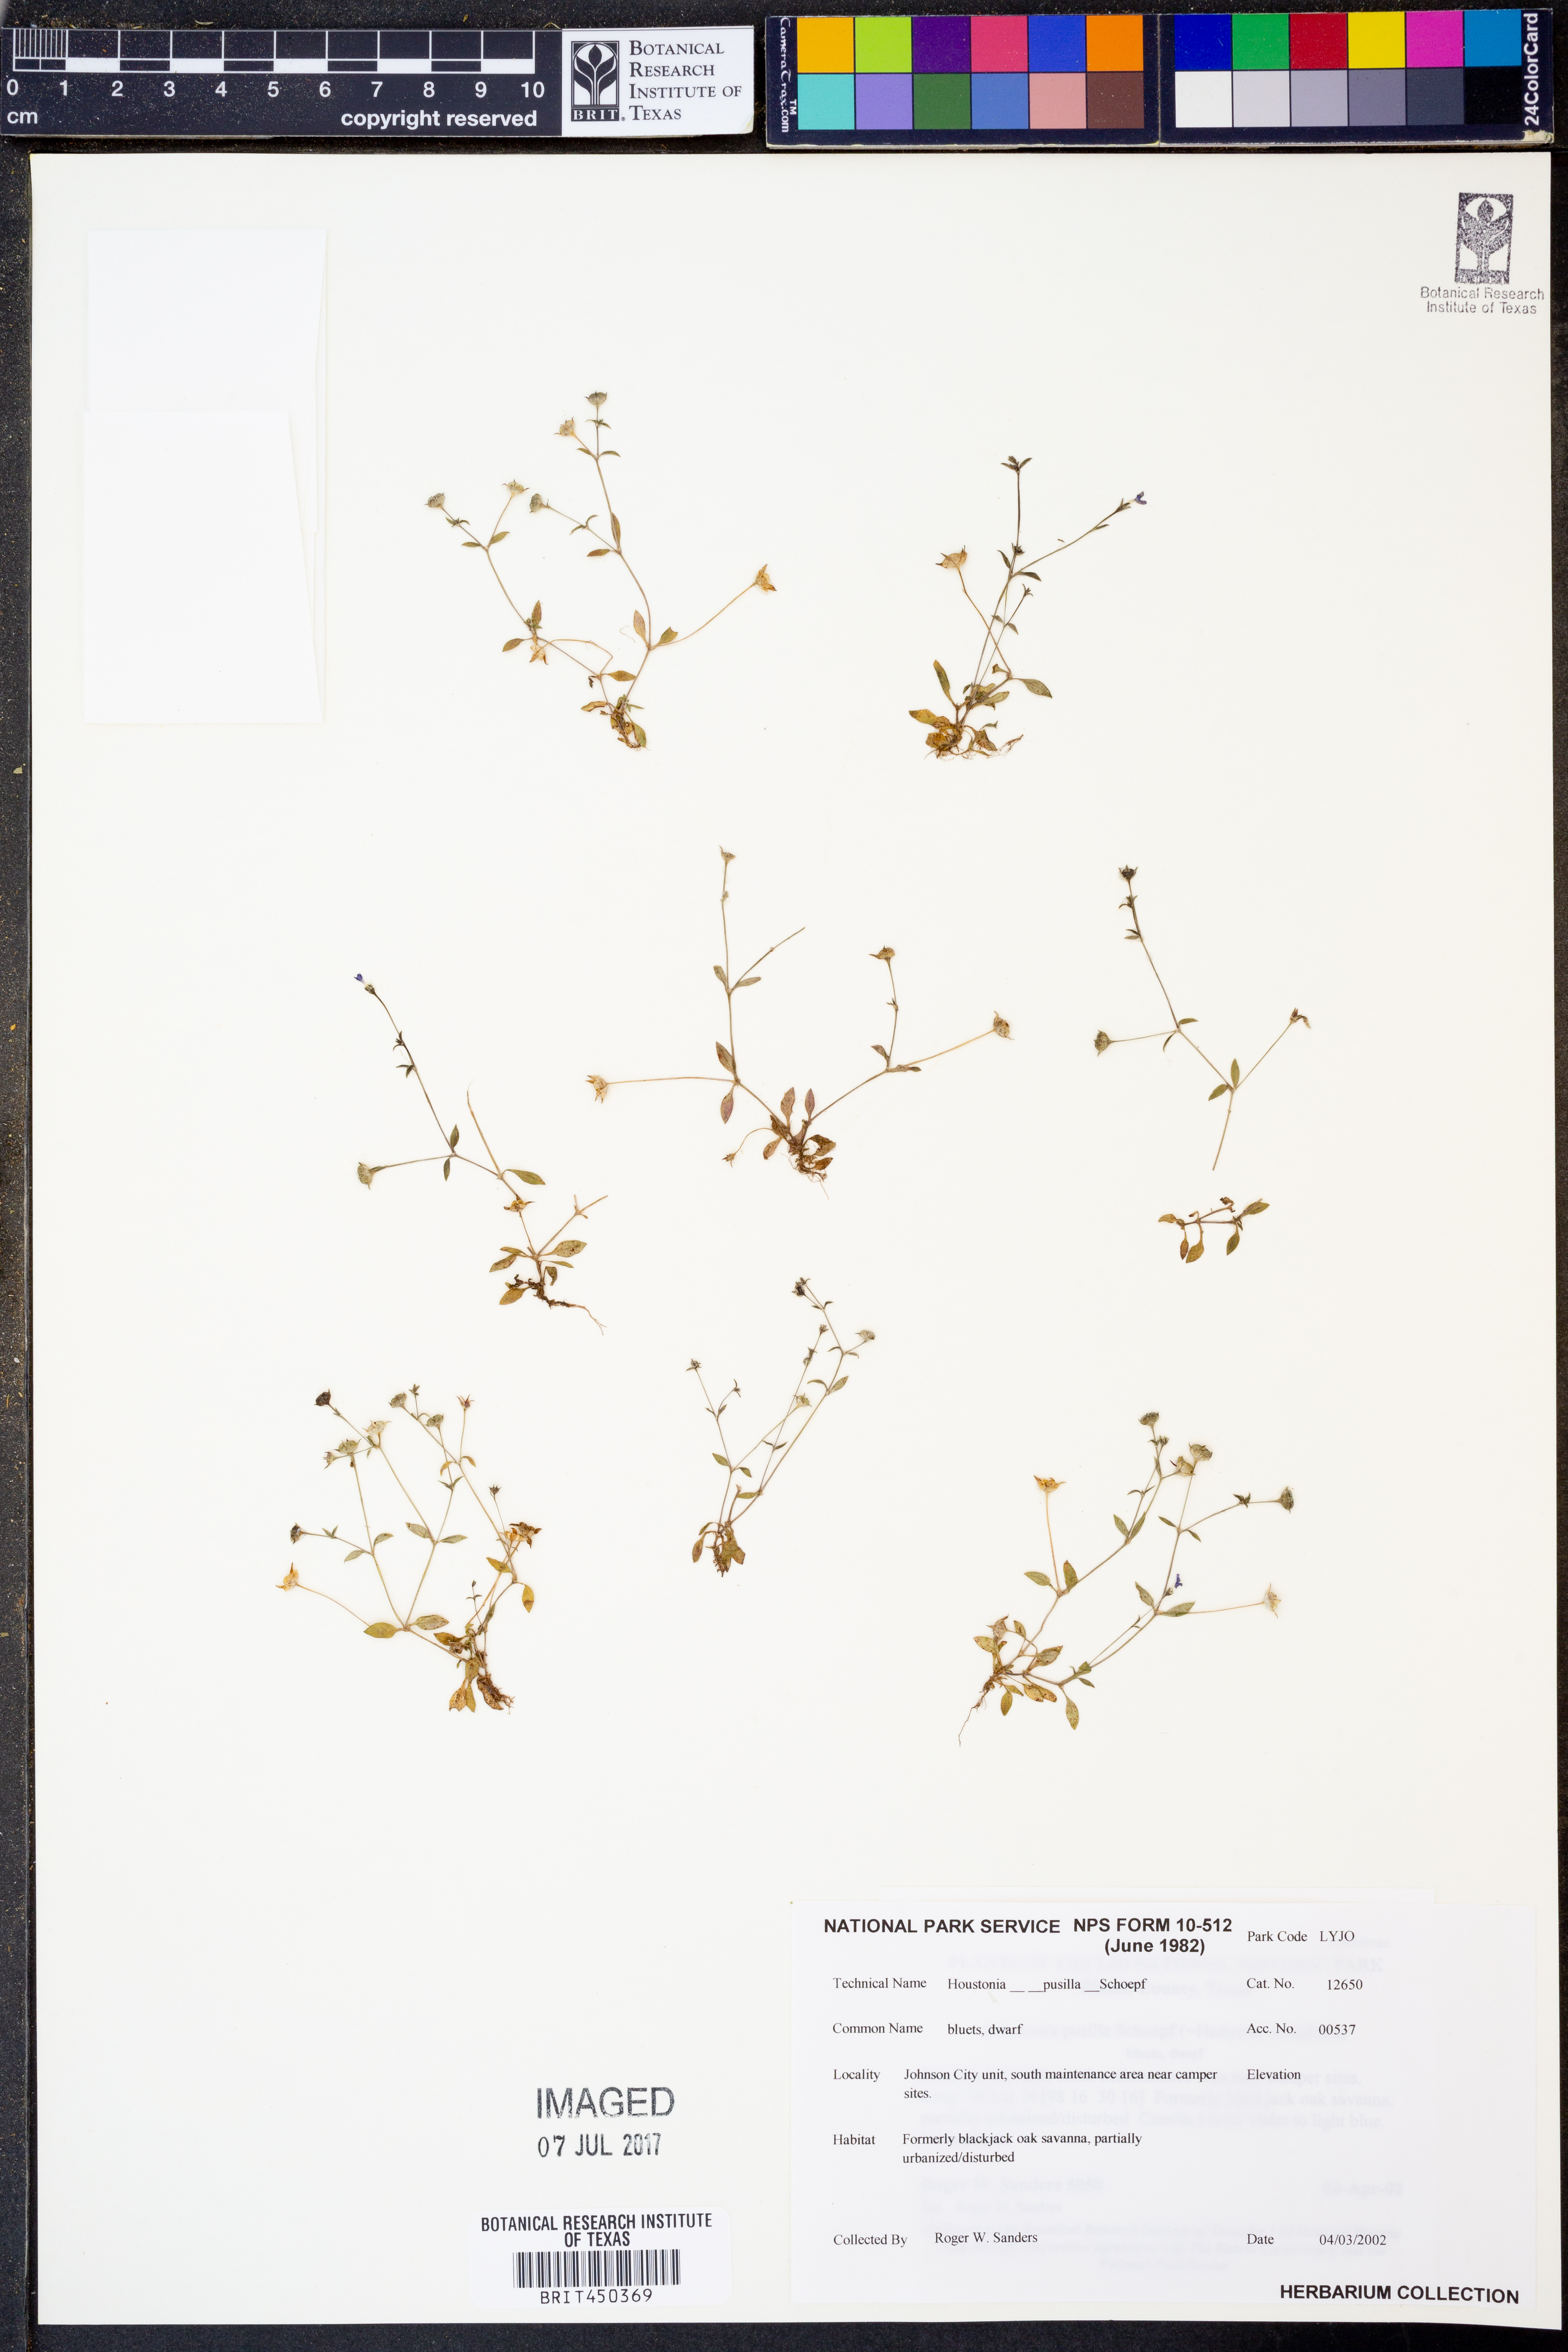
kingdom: Plantae
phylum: Tracheophyta
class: Magnoliopsida
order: Gentianales
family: Rubiaceae
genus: Houstonia
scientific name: Houstonia pusilla
